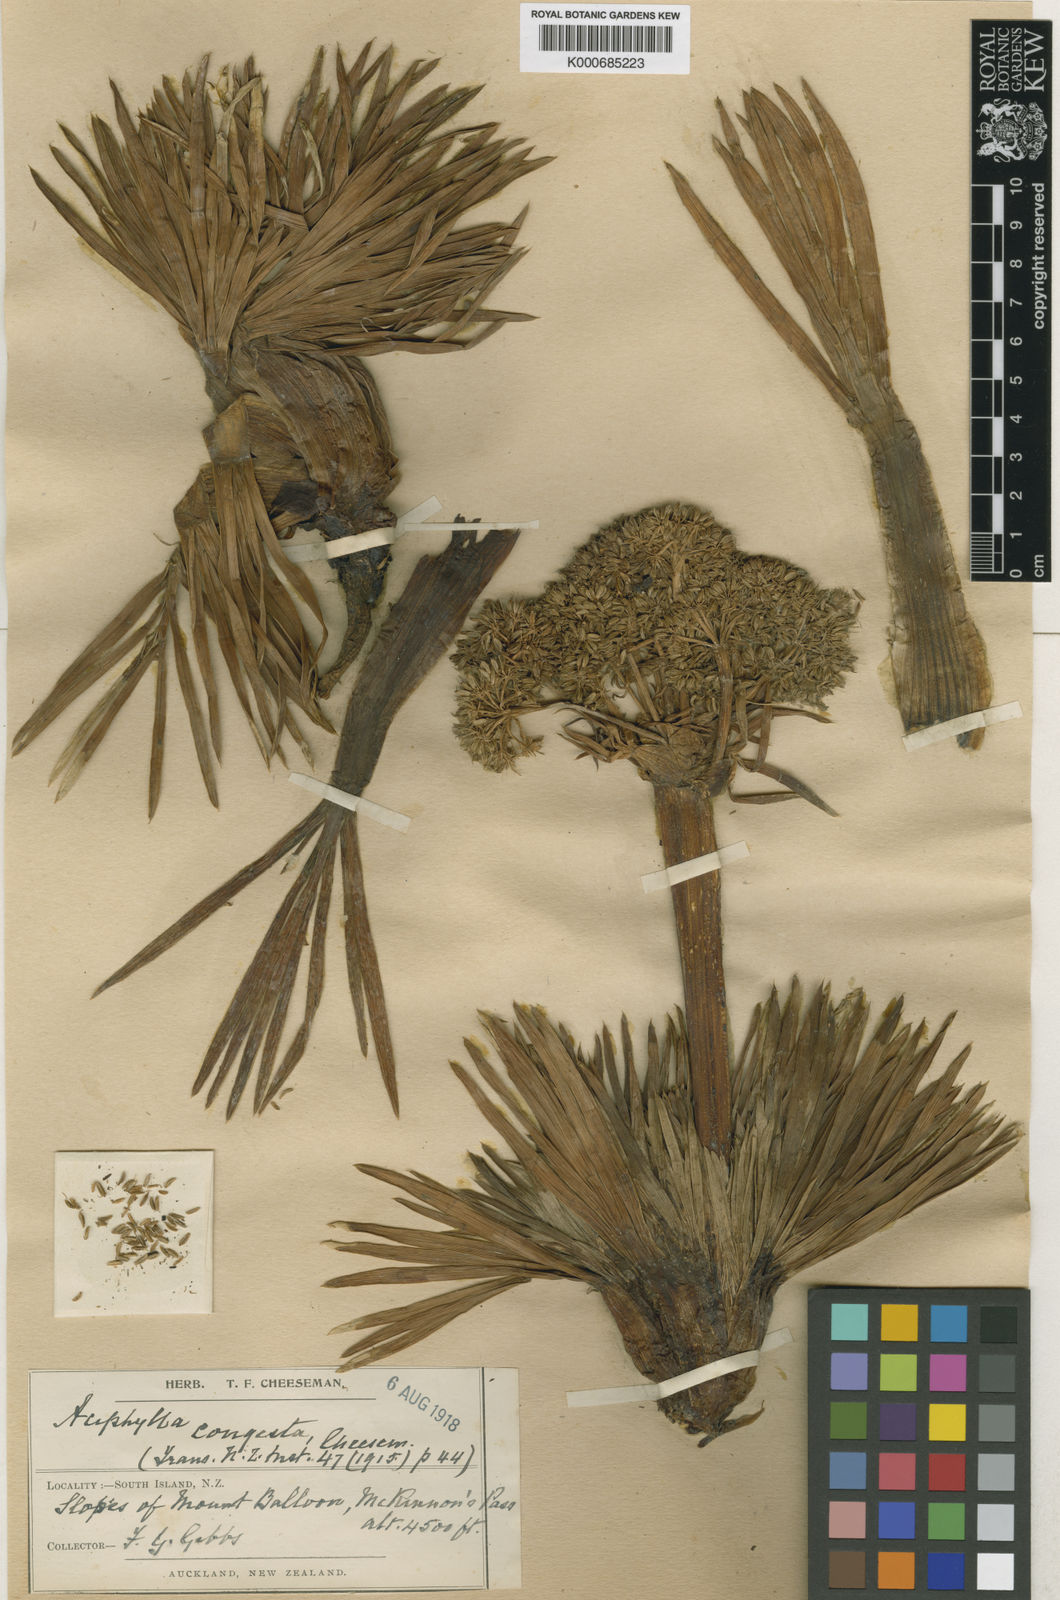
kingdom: Plantae
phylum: Tracheophyta
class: Magnoliopsida
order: Apiales
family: Apiaceae
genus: Aciphylla
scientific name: Aciphylla congesta
